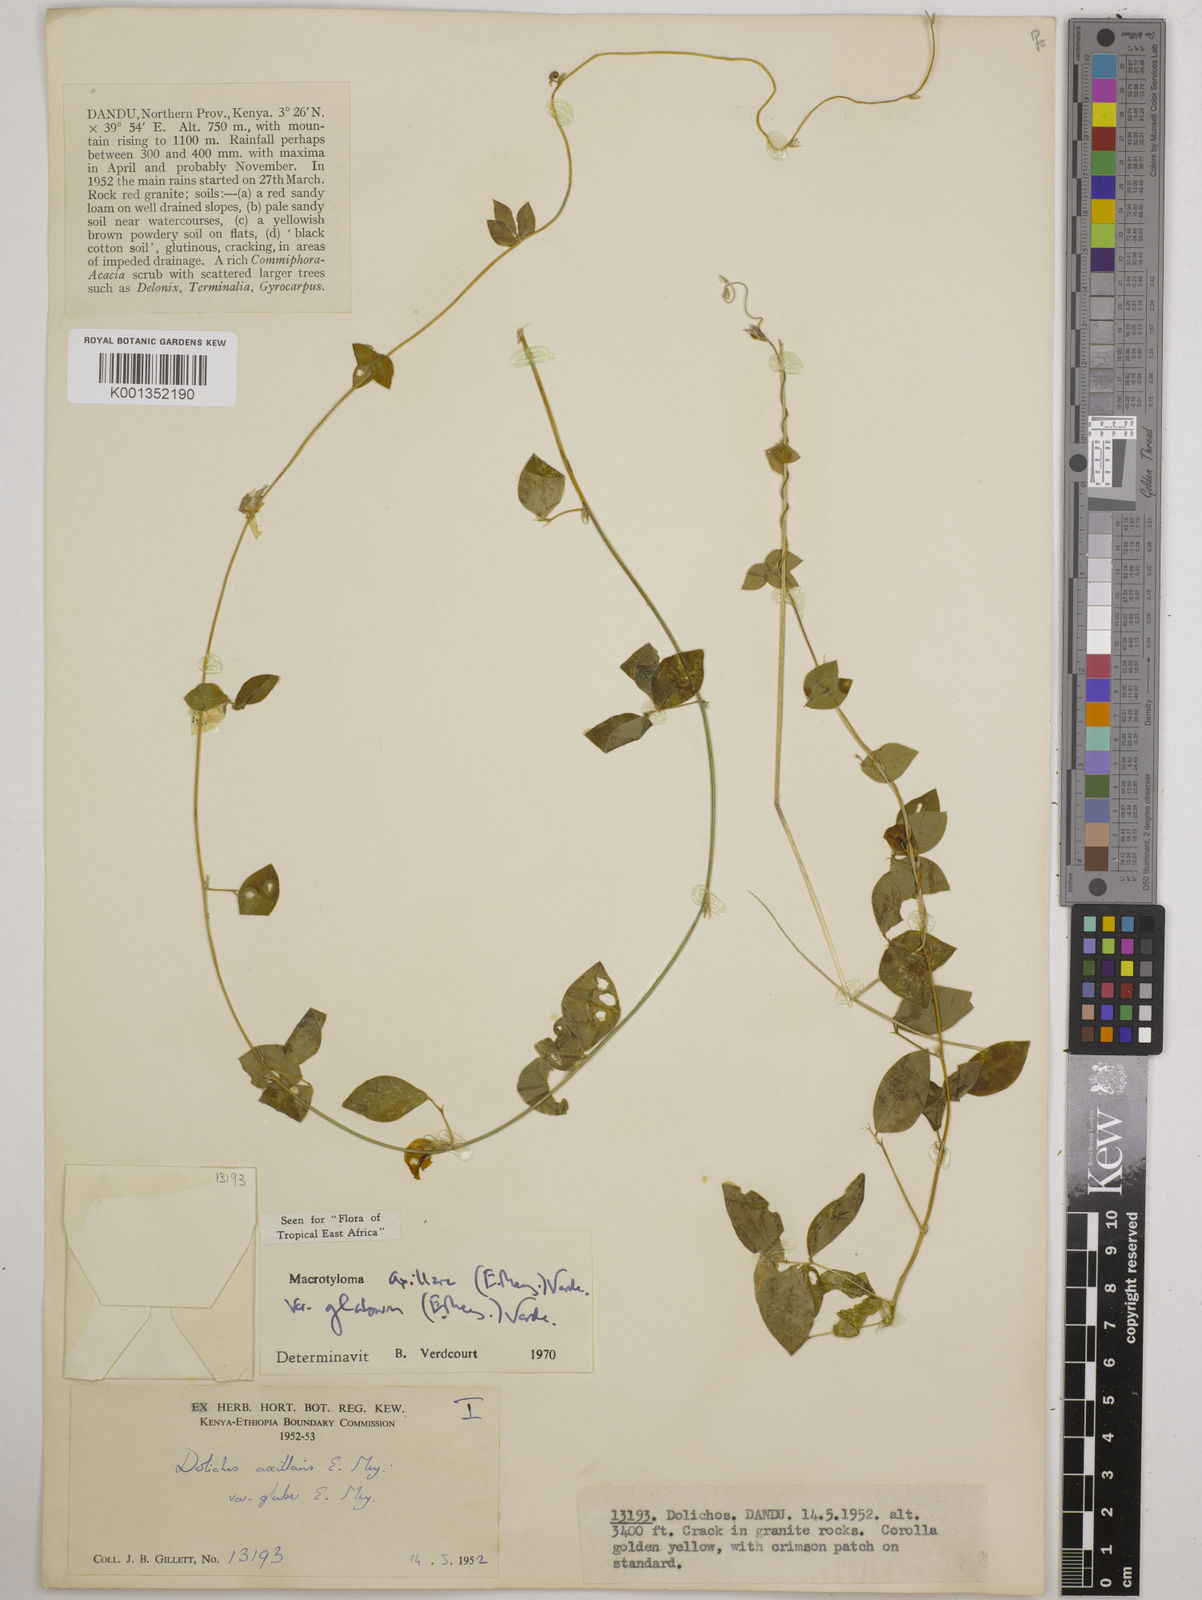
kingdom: Plantae
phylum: Tracheophyta
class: Magnoliopsida
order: Fabales
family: Fabaceae
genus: Macrotyloma
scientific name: Macrotyloma
